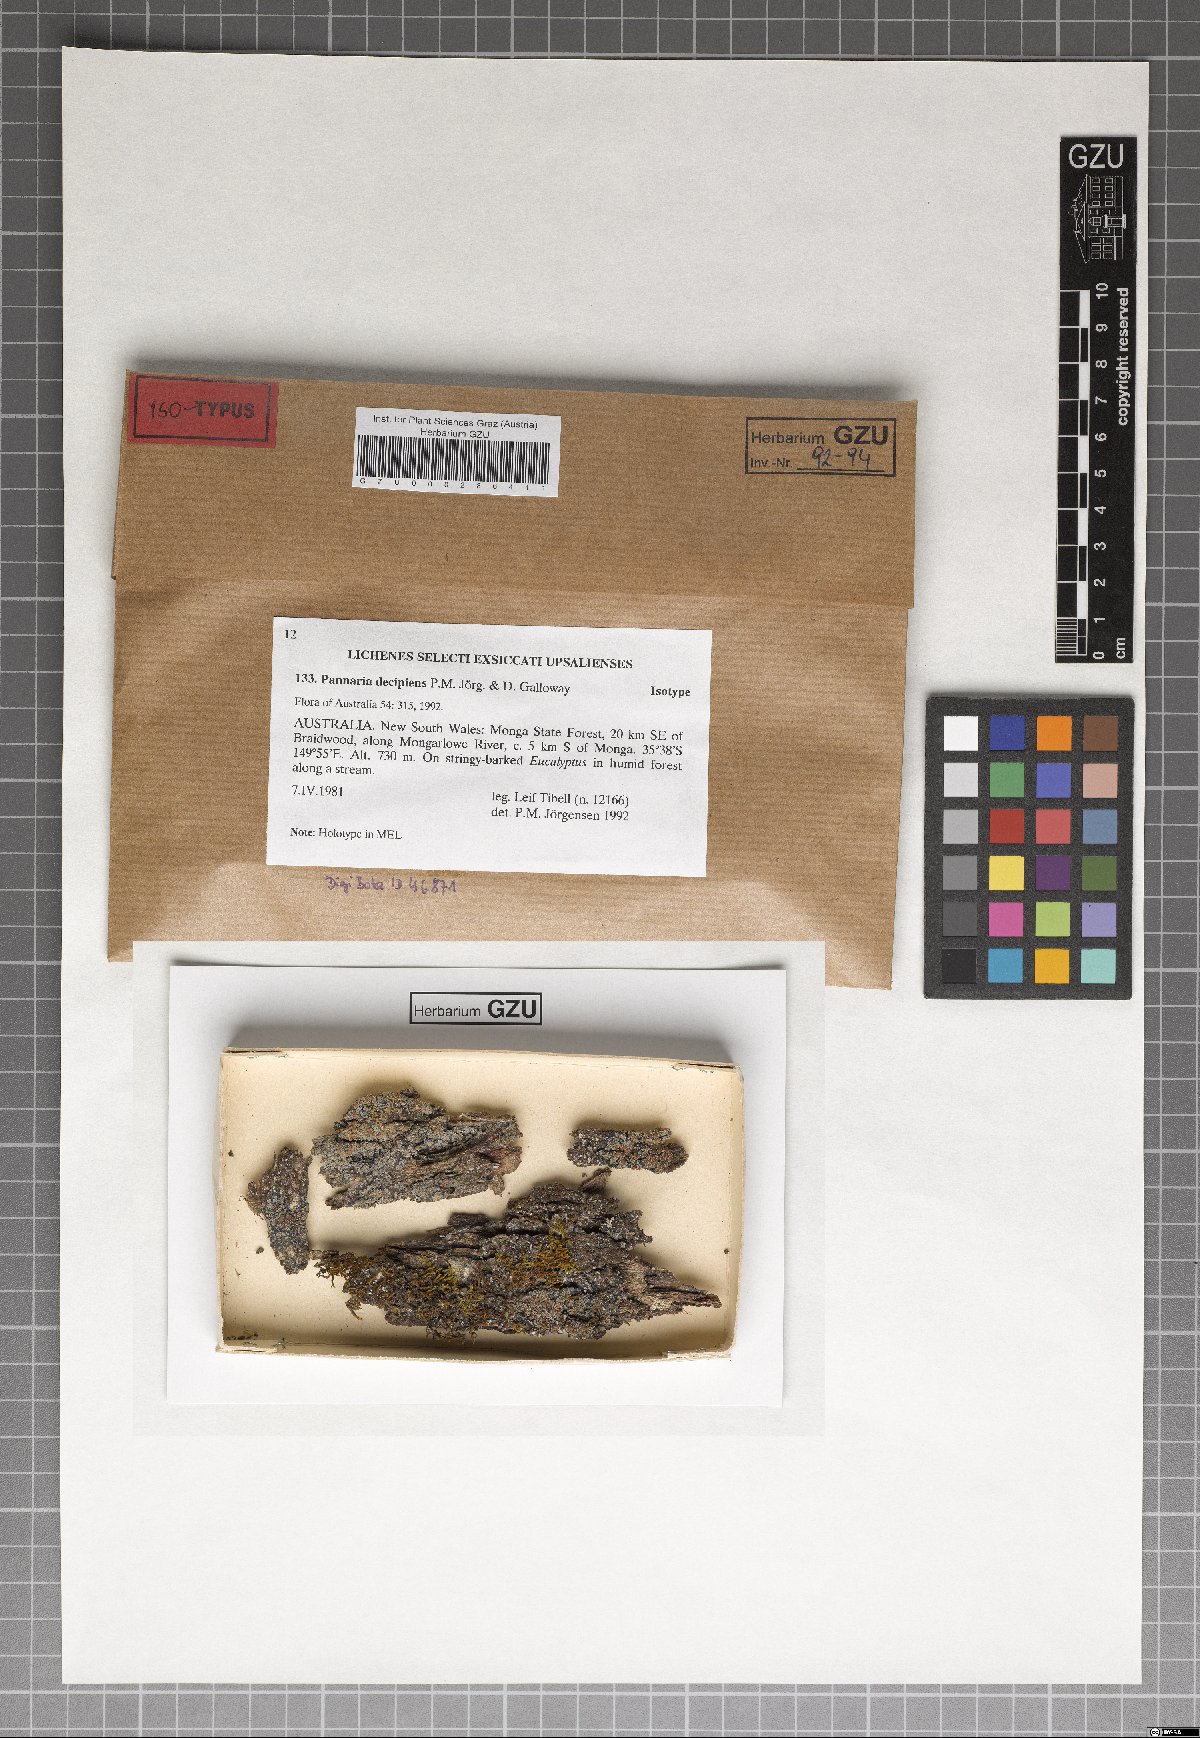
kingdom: Fungi
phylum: Ascomycota
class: Lecanoromycetes
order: Peltigerales
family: Pannariaceae
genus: Pannaria
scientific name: Pannaria decipiens
